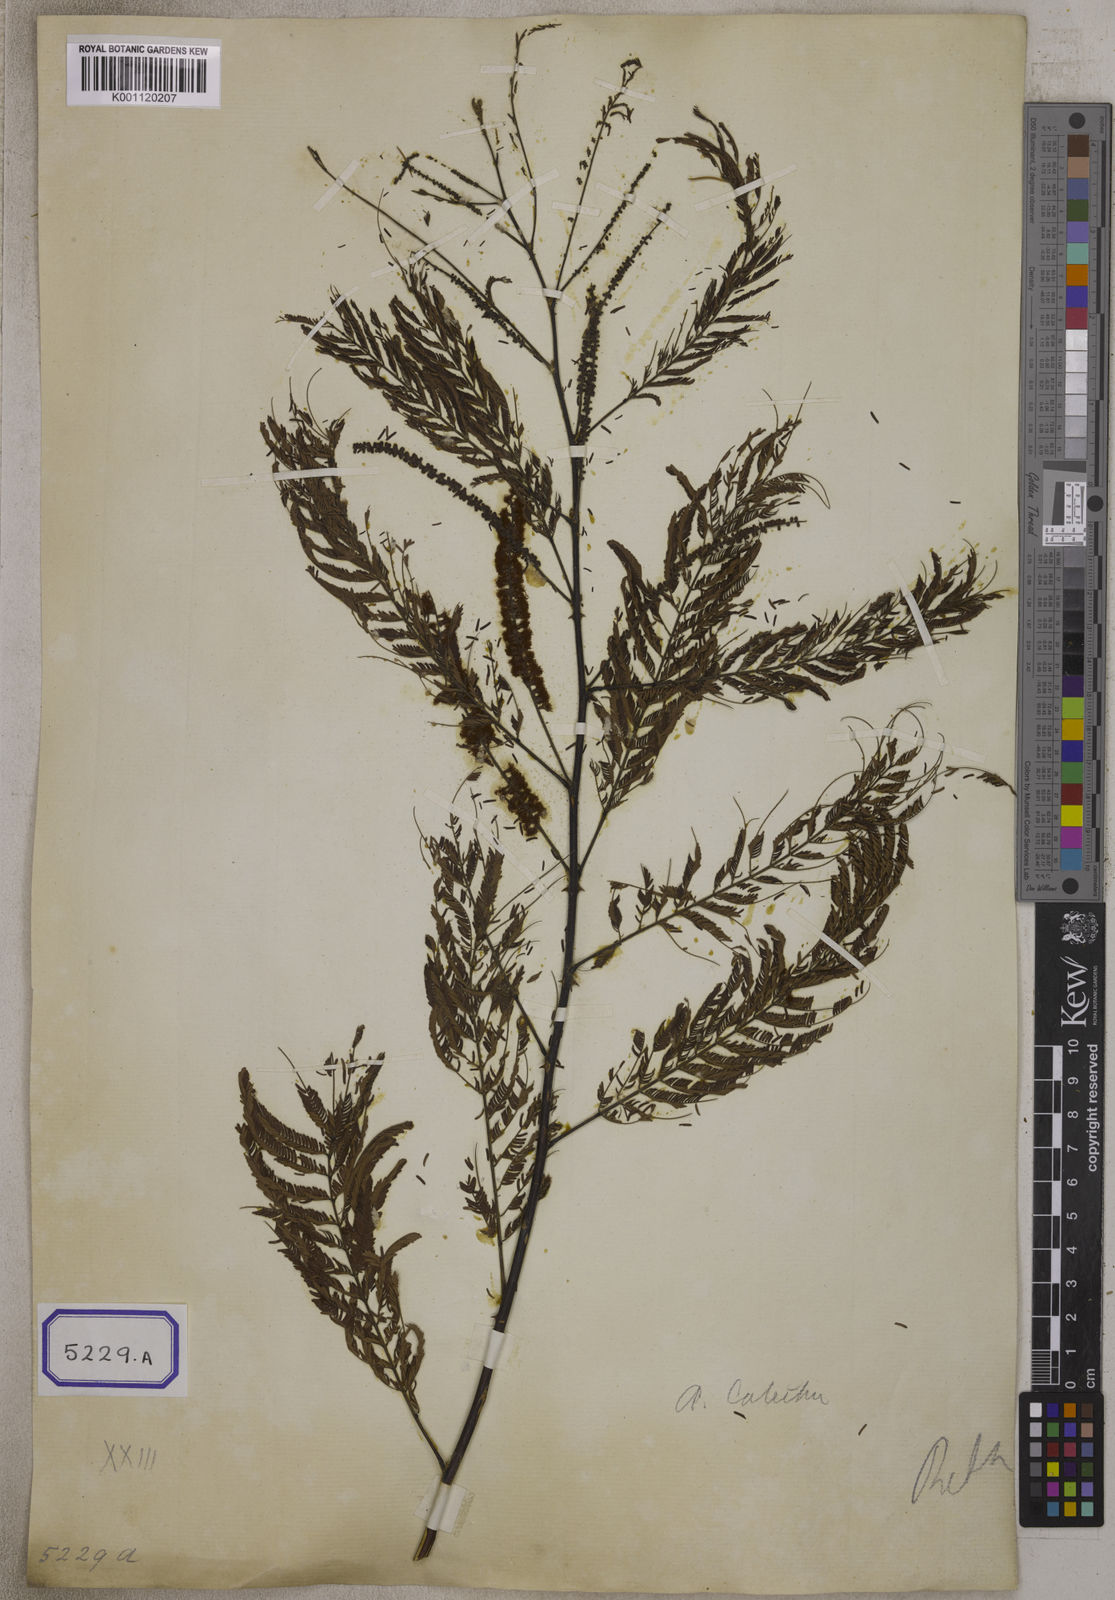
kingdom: Plantae
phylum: Tracheophyta
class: Magnoliopsida
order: Fabales
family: Fabaceae
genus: Senegalia
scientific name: Senegalia catechu
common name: Black cutch
